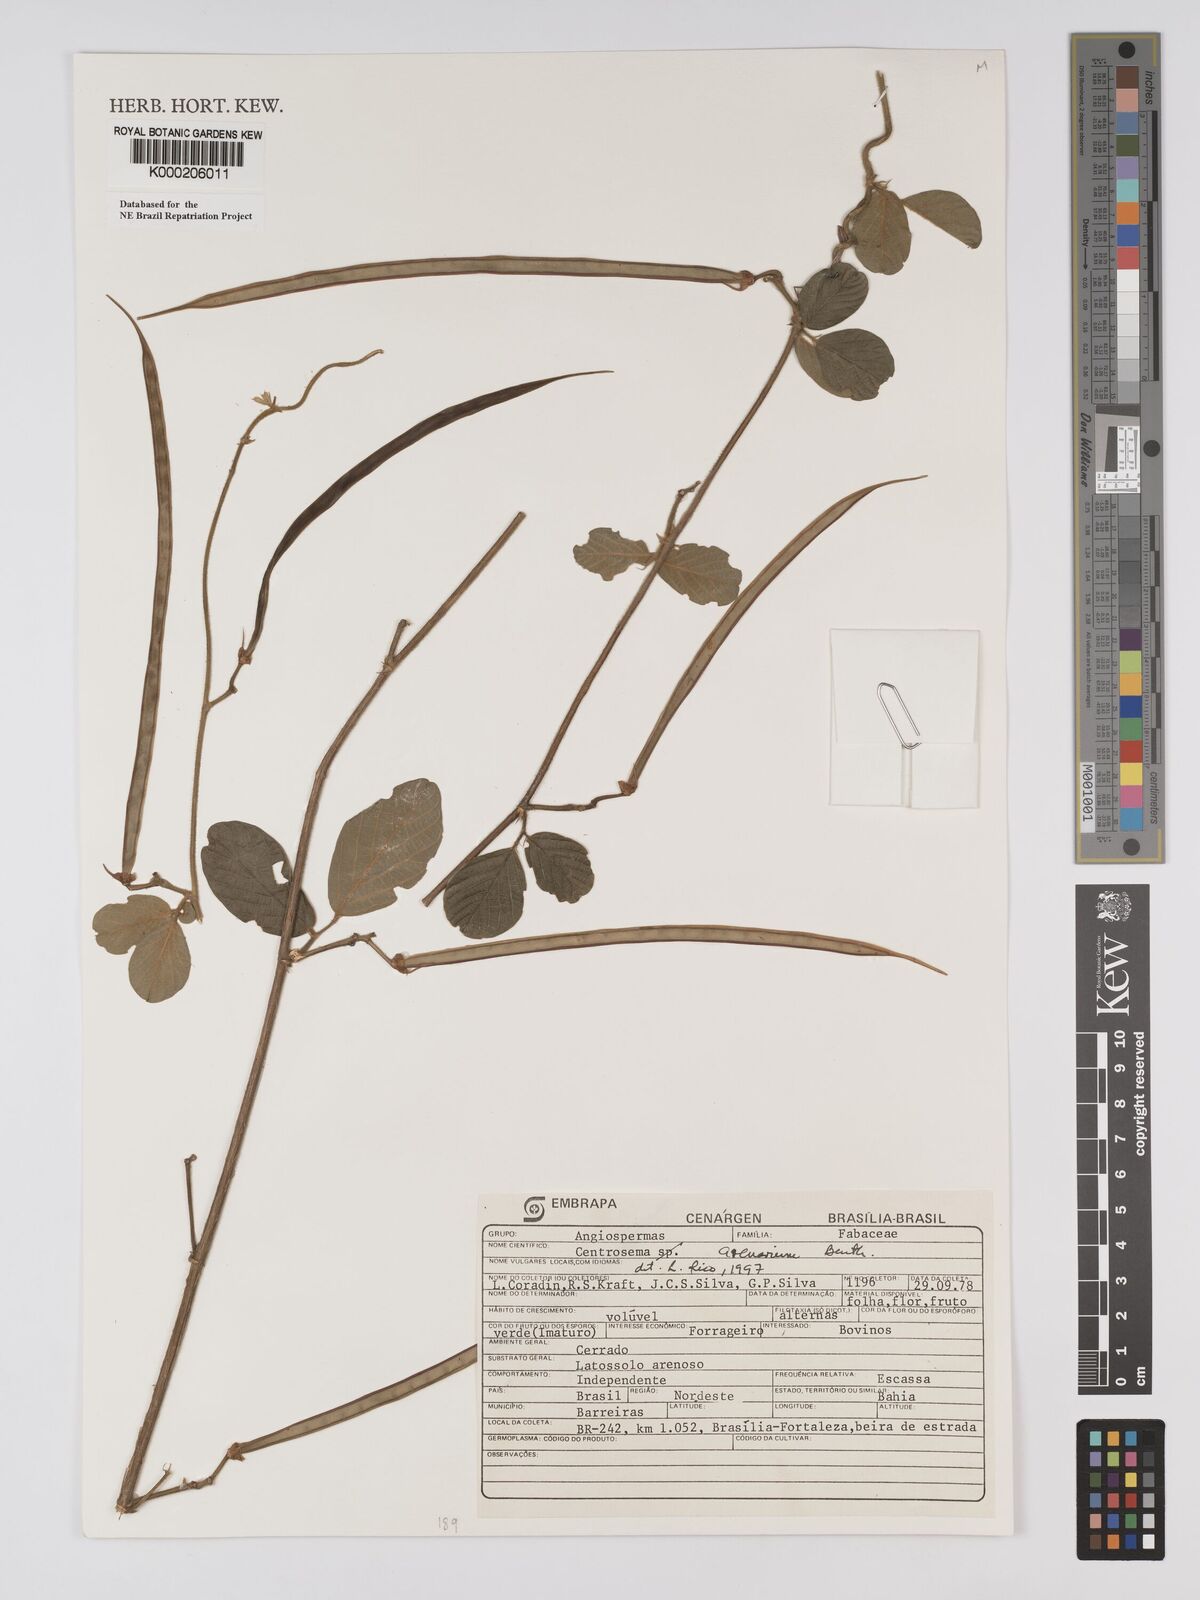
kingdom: Plantae
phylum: Tracheophyta
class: Magnoliopsida
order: Fabales
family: Fabaceae
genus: Centrosema
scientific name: Centrosema arenarium
